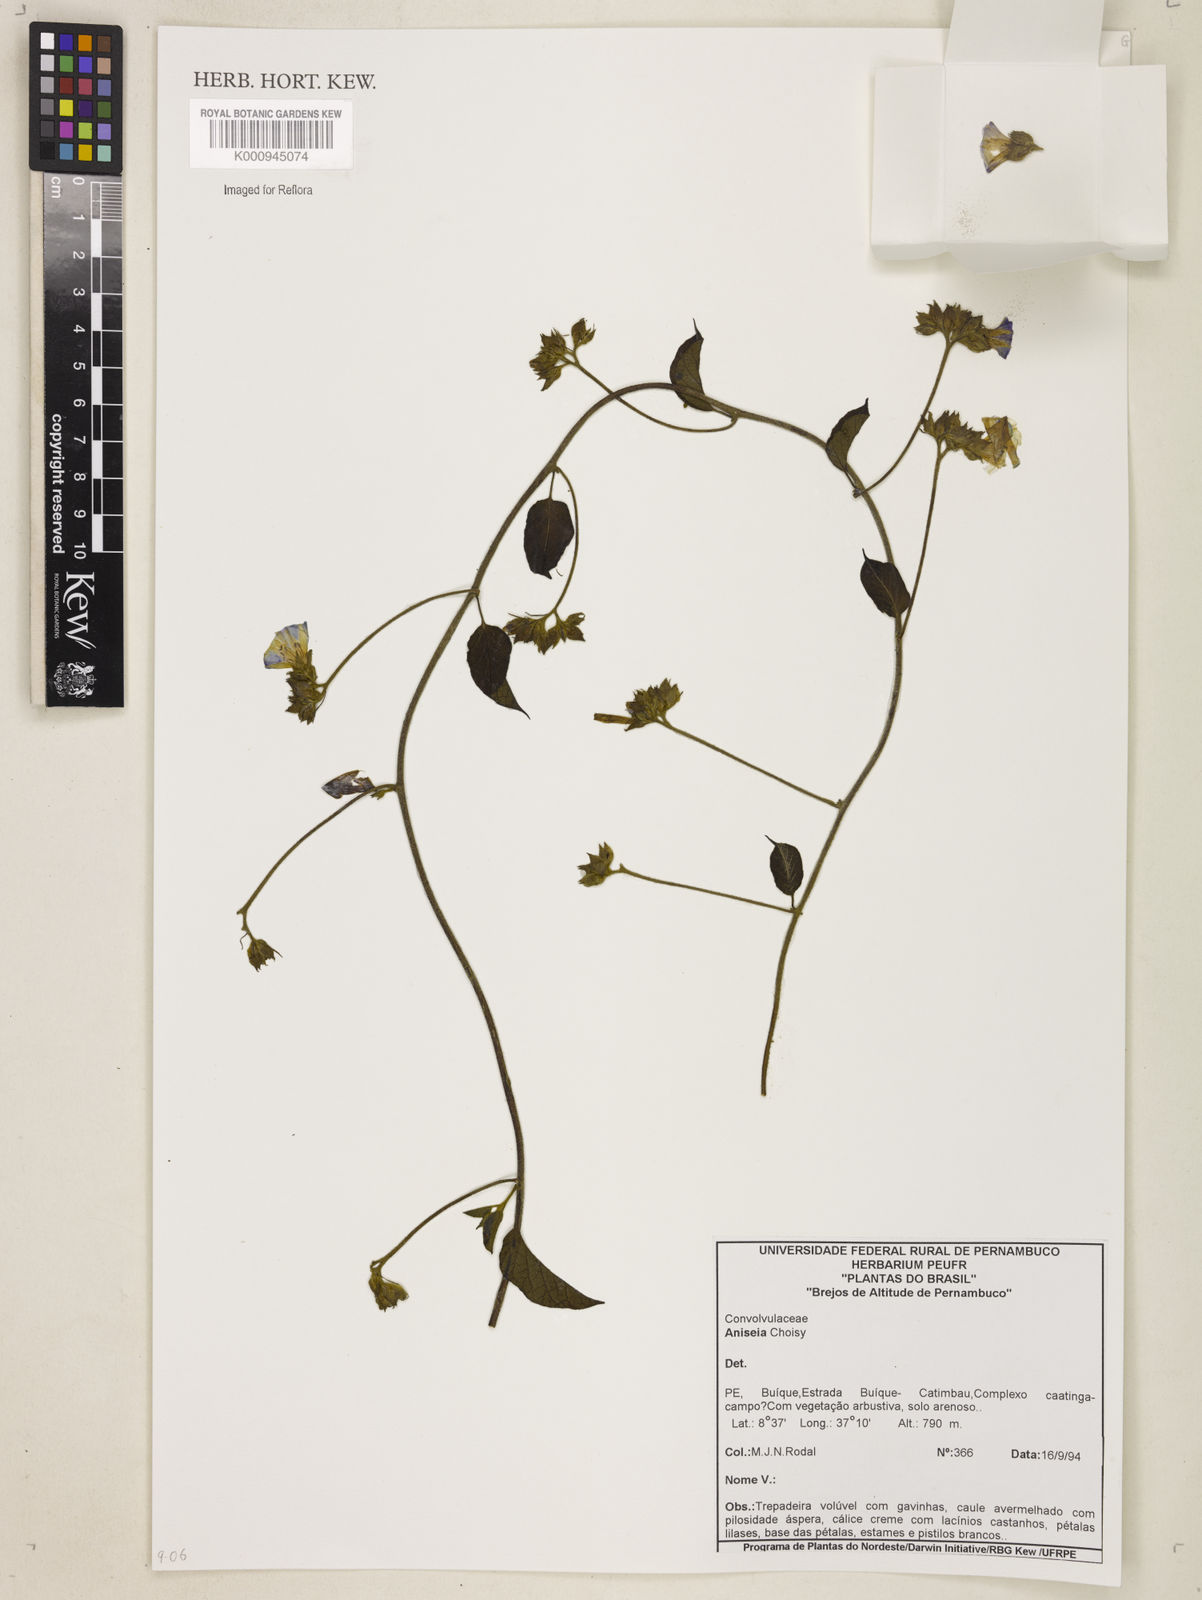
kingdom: Plantae
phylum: Tracheophyta
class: Magnoliopsida
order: Solanales
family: Convolvulaceae
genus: Aniseia
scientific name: Aniseia
